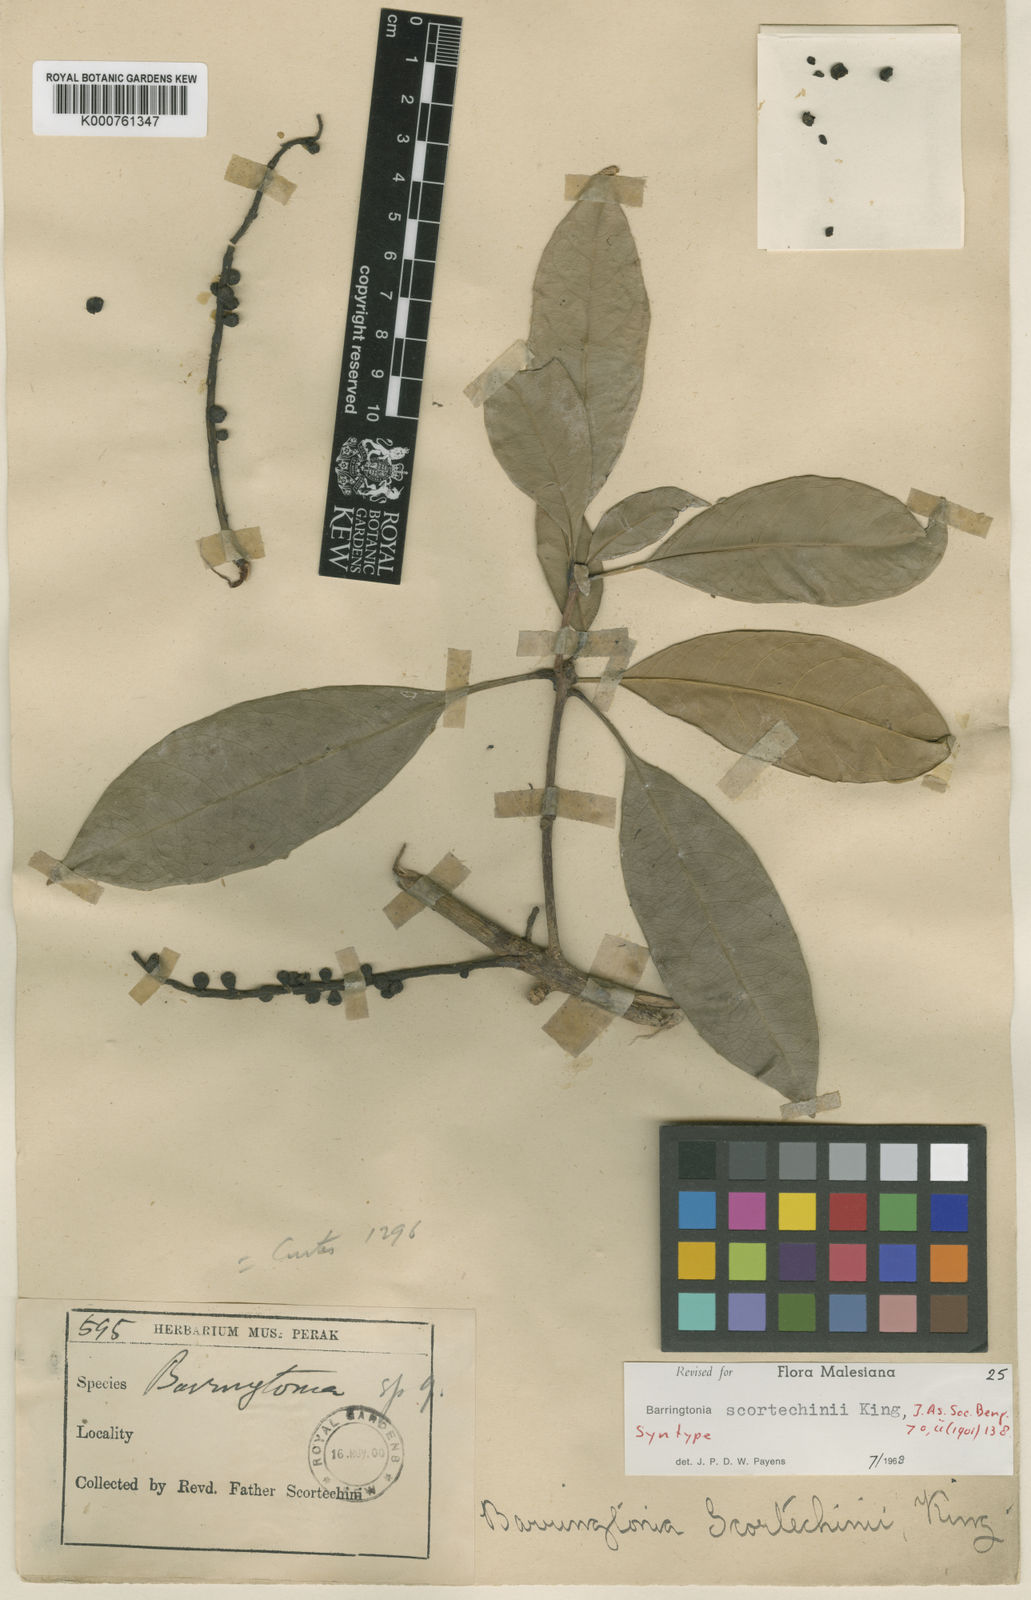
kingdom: Plantae
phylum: Tracheophyta
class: Magnoliopsida
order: Ericales
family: Lecythidaceae
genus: Barringtonia
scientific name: Barringtonia scortechinii
